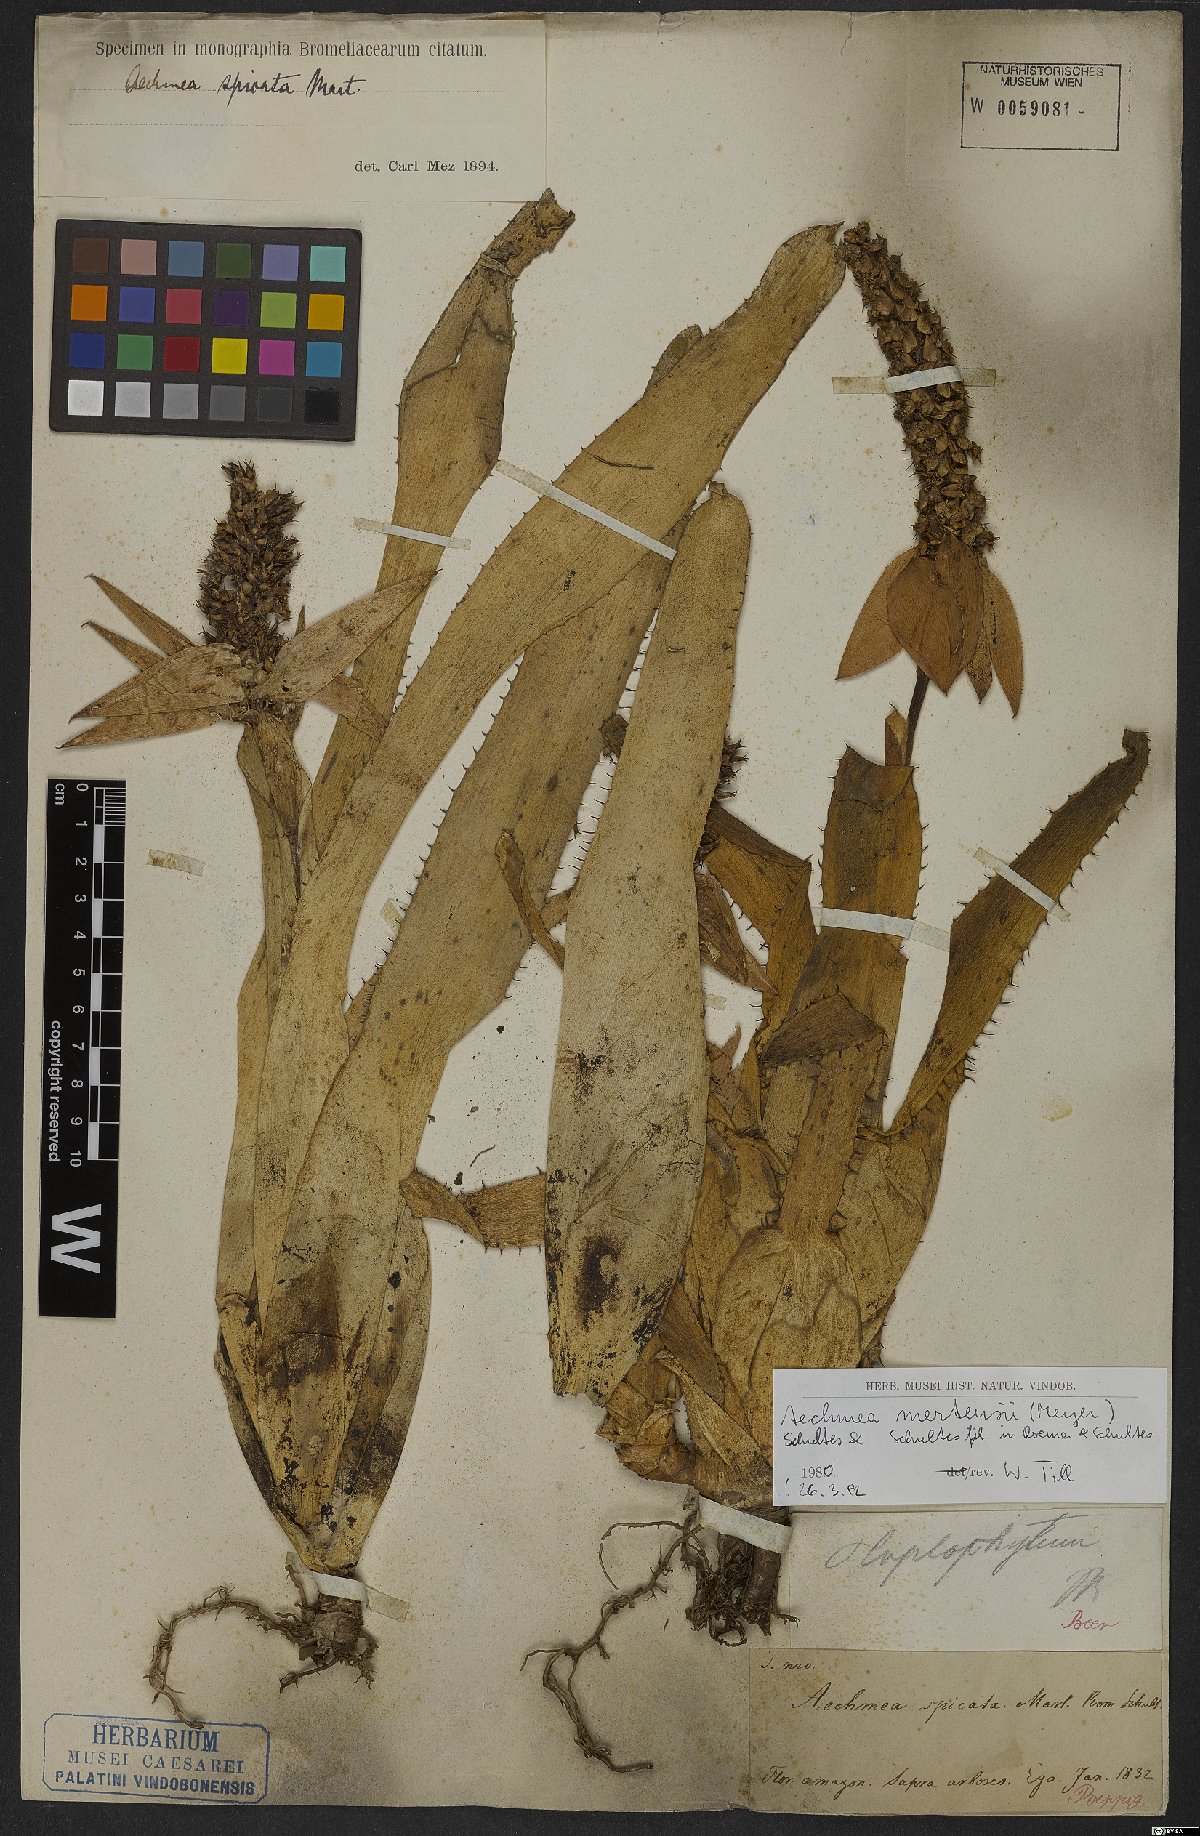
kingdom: Plantae
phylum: Tracheophyta
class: Liliopsida
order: Poales
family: Bromeliaceae
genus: Aechmea
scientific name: Aechmea mertensii
